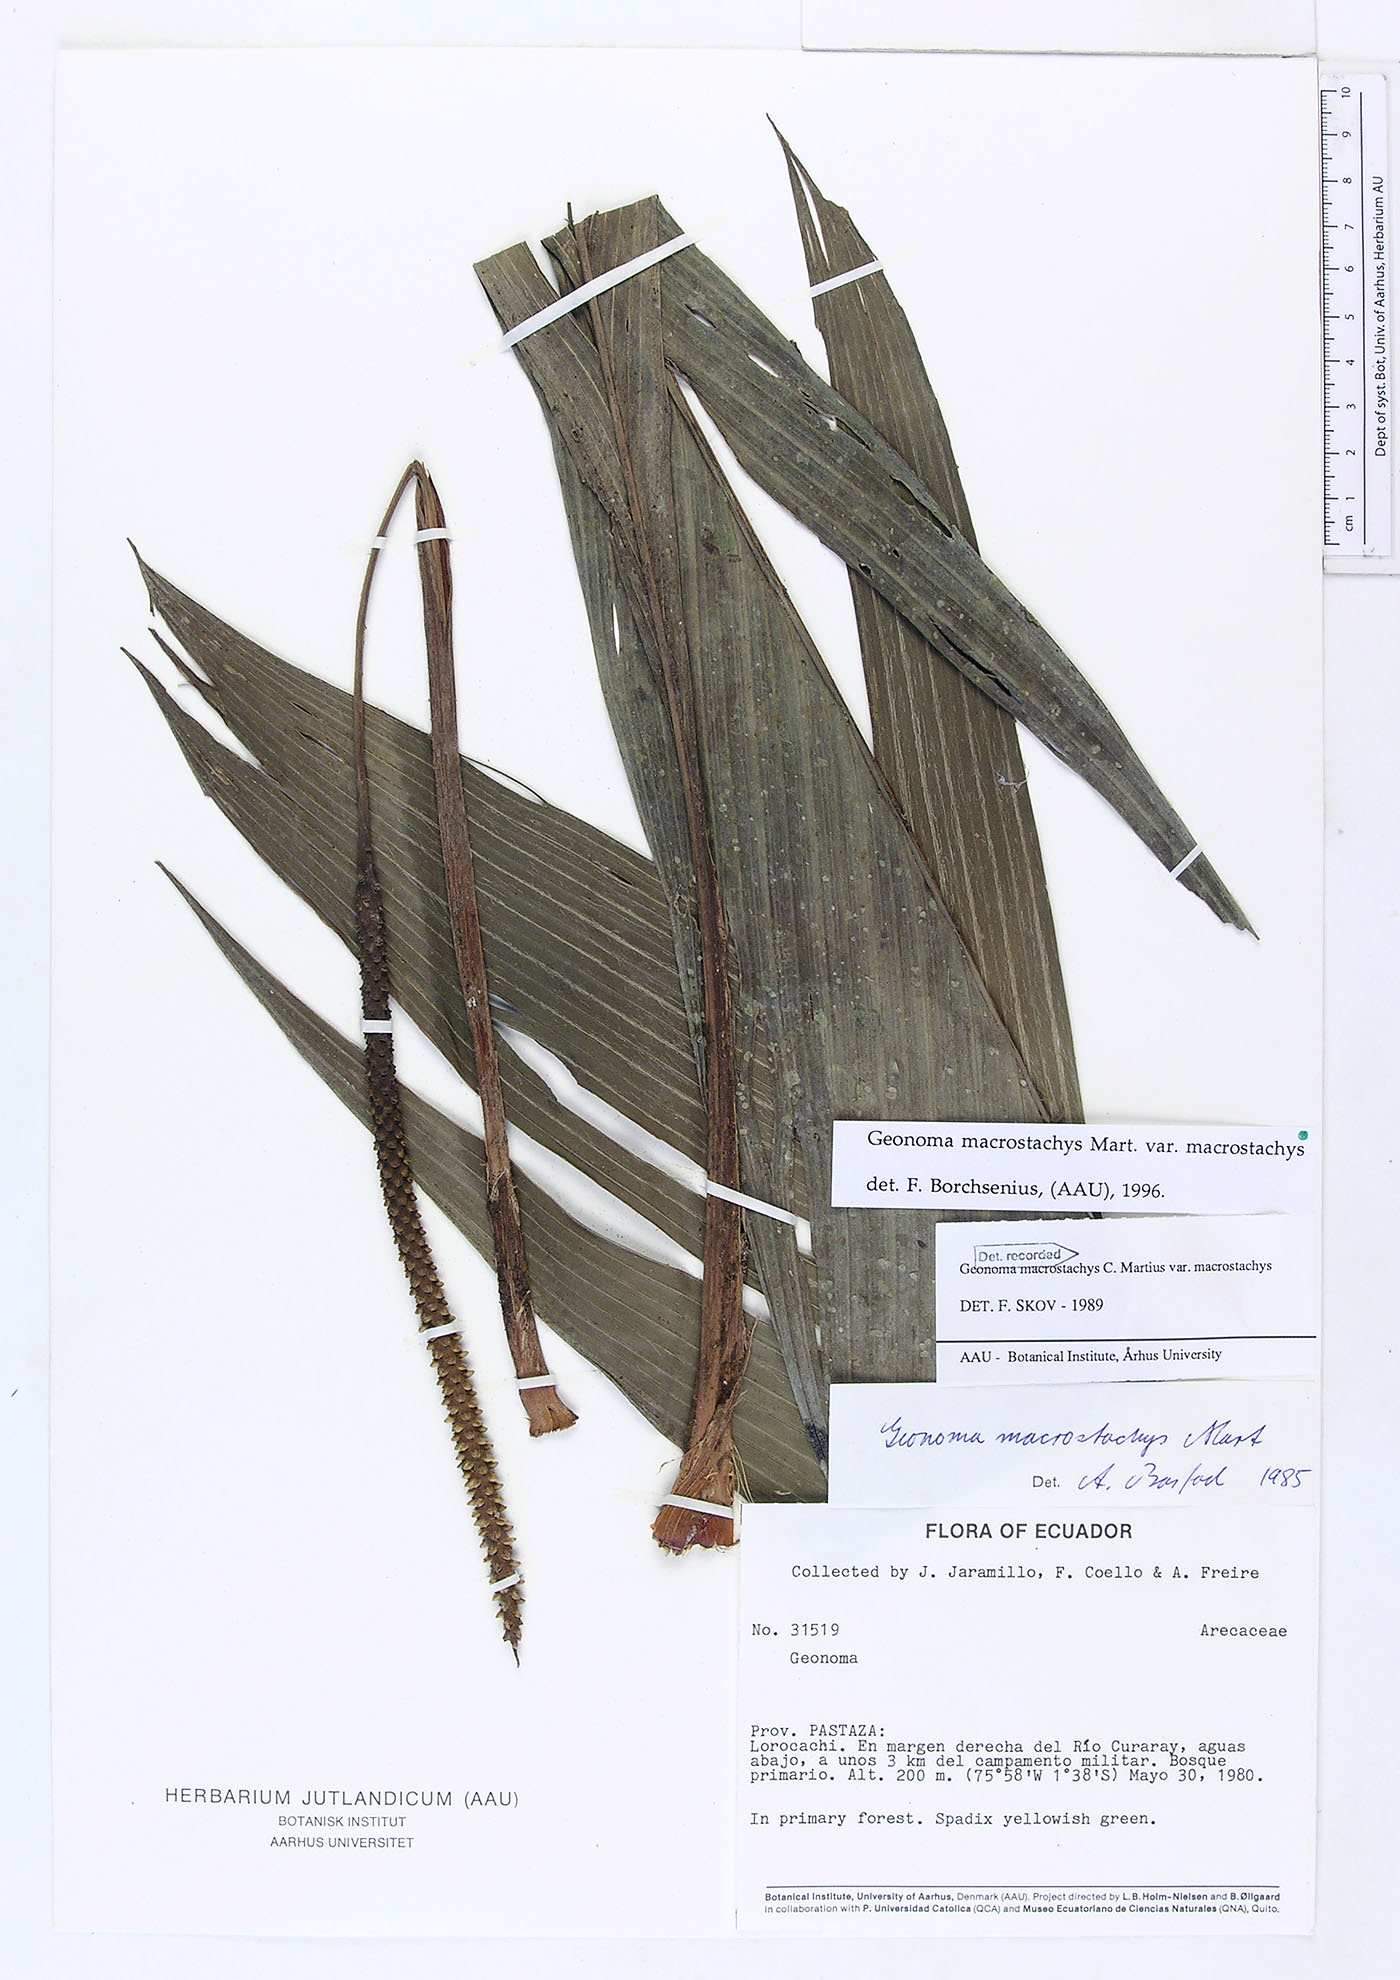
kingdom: Plantae
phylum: Tracheophyta
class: Liliopsida
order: Arecales
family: Arecaceae
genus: Geonoma
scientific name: Geonoma macrostachys
